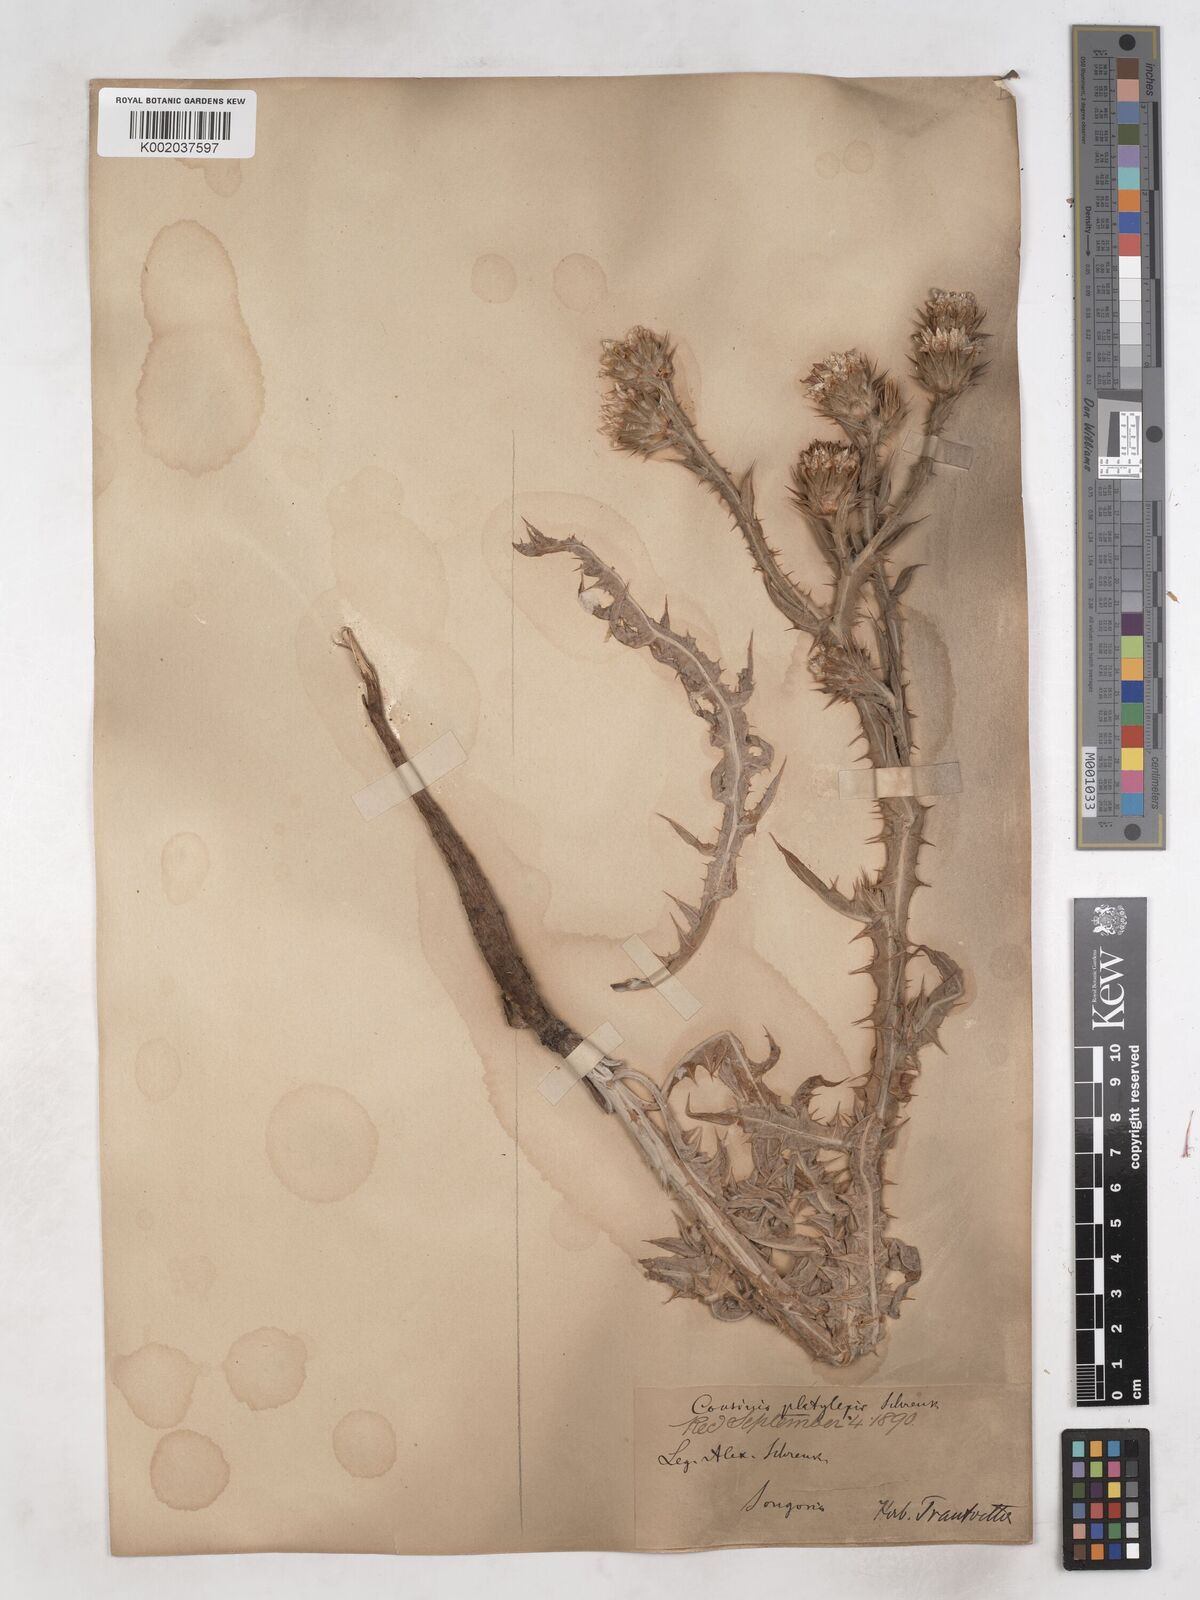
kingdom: Plantae
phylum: Tracheophyta
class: Magnoliopsida
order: Asterales
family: Asteraceae
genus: Cousinia
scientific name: Cousinia platylepis
